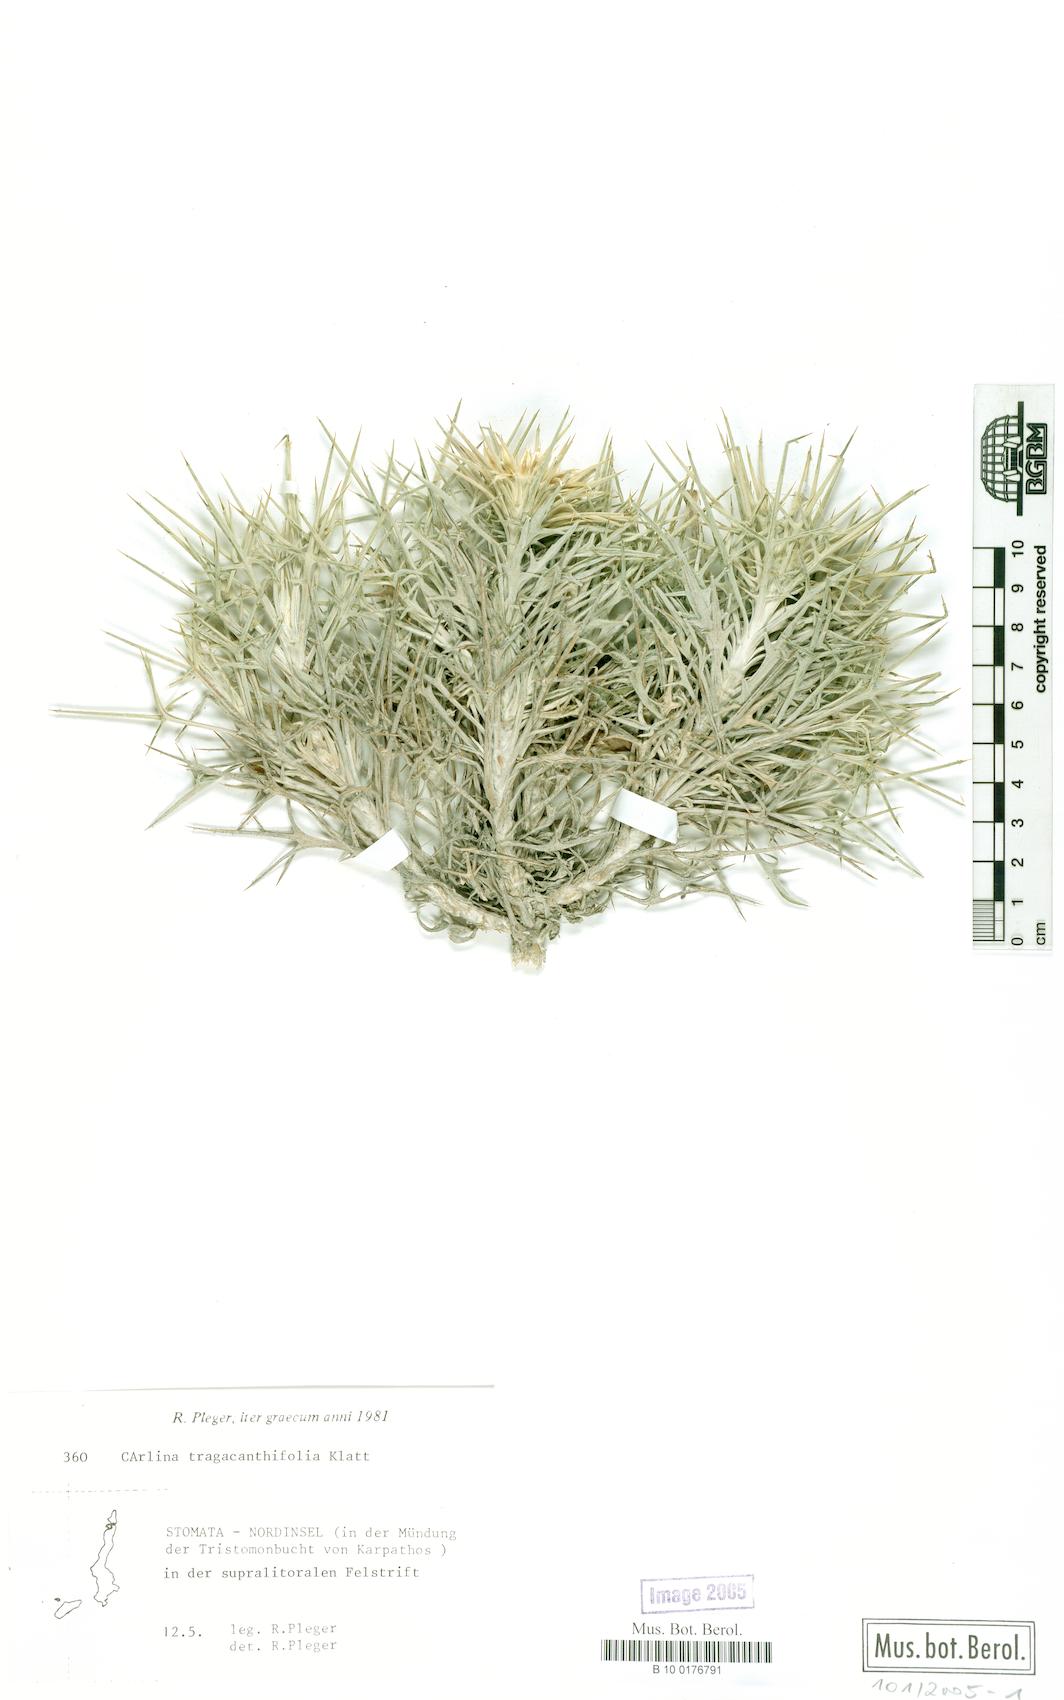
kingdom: Plantae
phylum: Tracheophyta
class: Magnoliopsida
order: Asterales
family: Asteraceae
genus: Carlina
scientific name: Carlina tragacanthifolia
